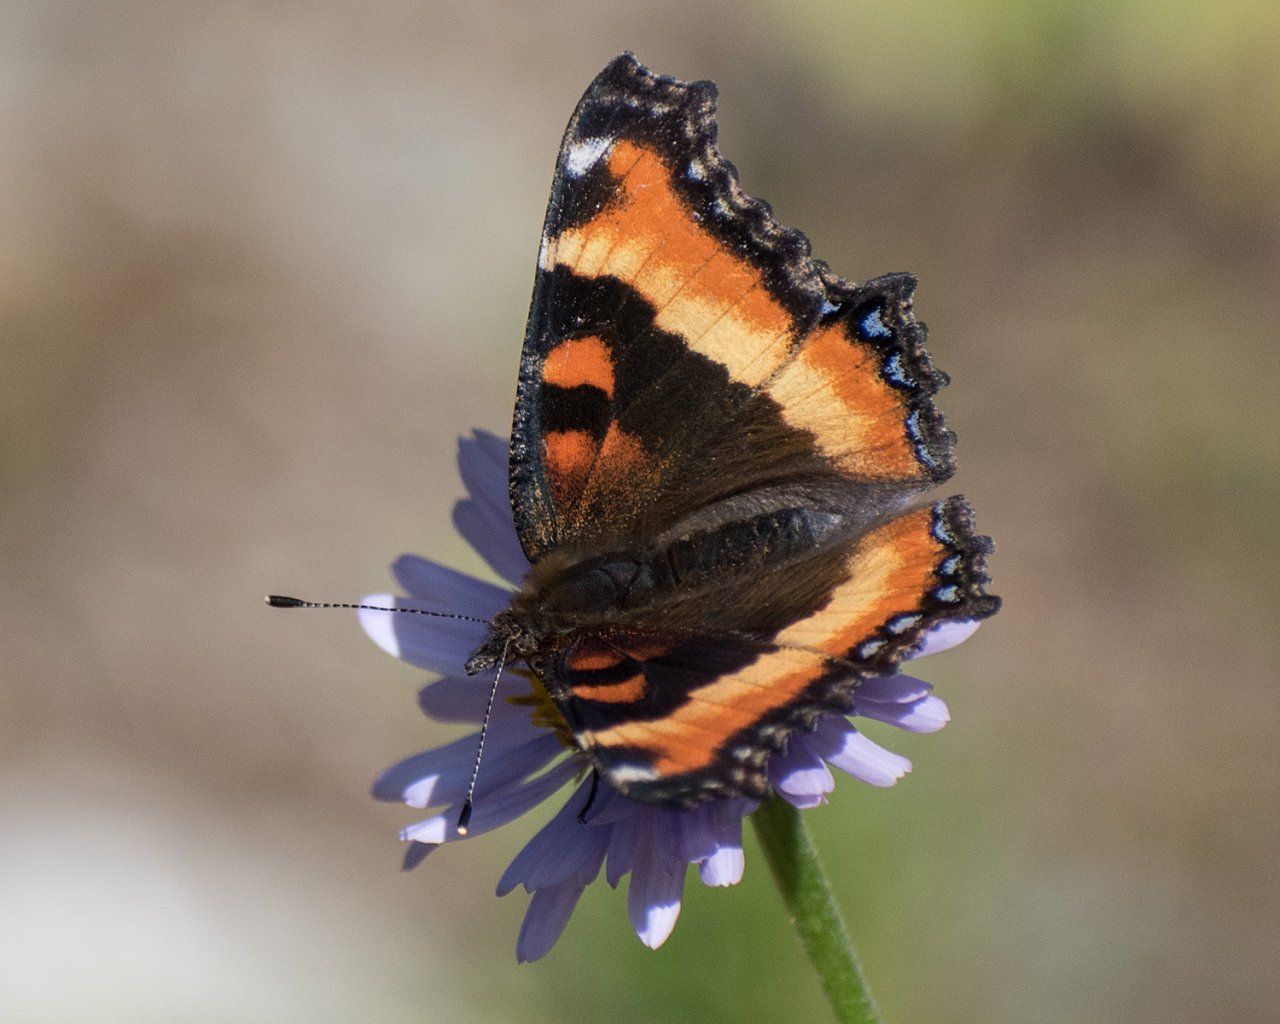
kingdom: Animalia
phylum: Arthropoda
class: Insecta
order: Lepidoptera
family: Nymphalidae
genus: Aglais
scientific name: Aglais milberti
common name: Milbert's Tortoiseshell
